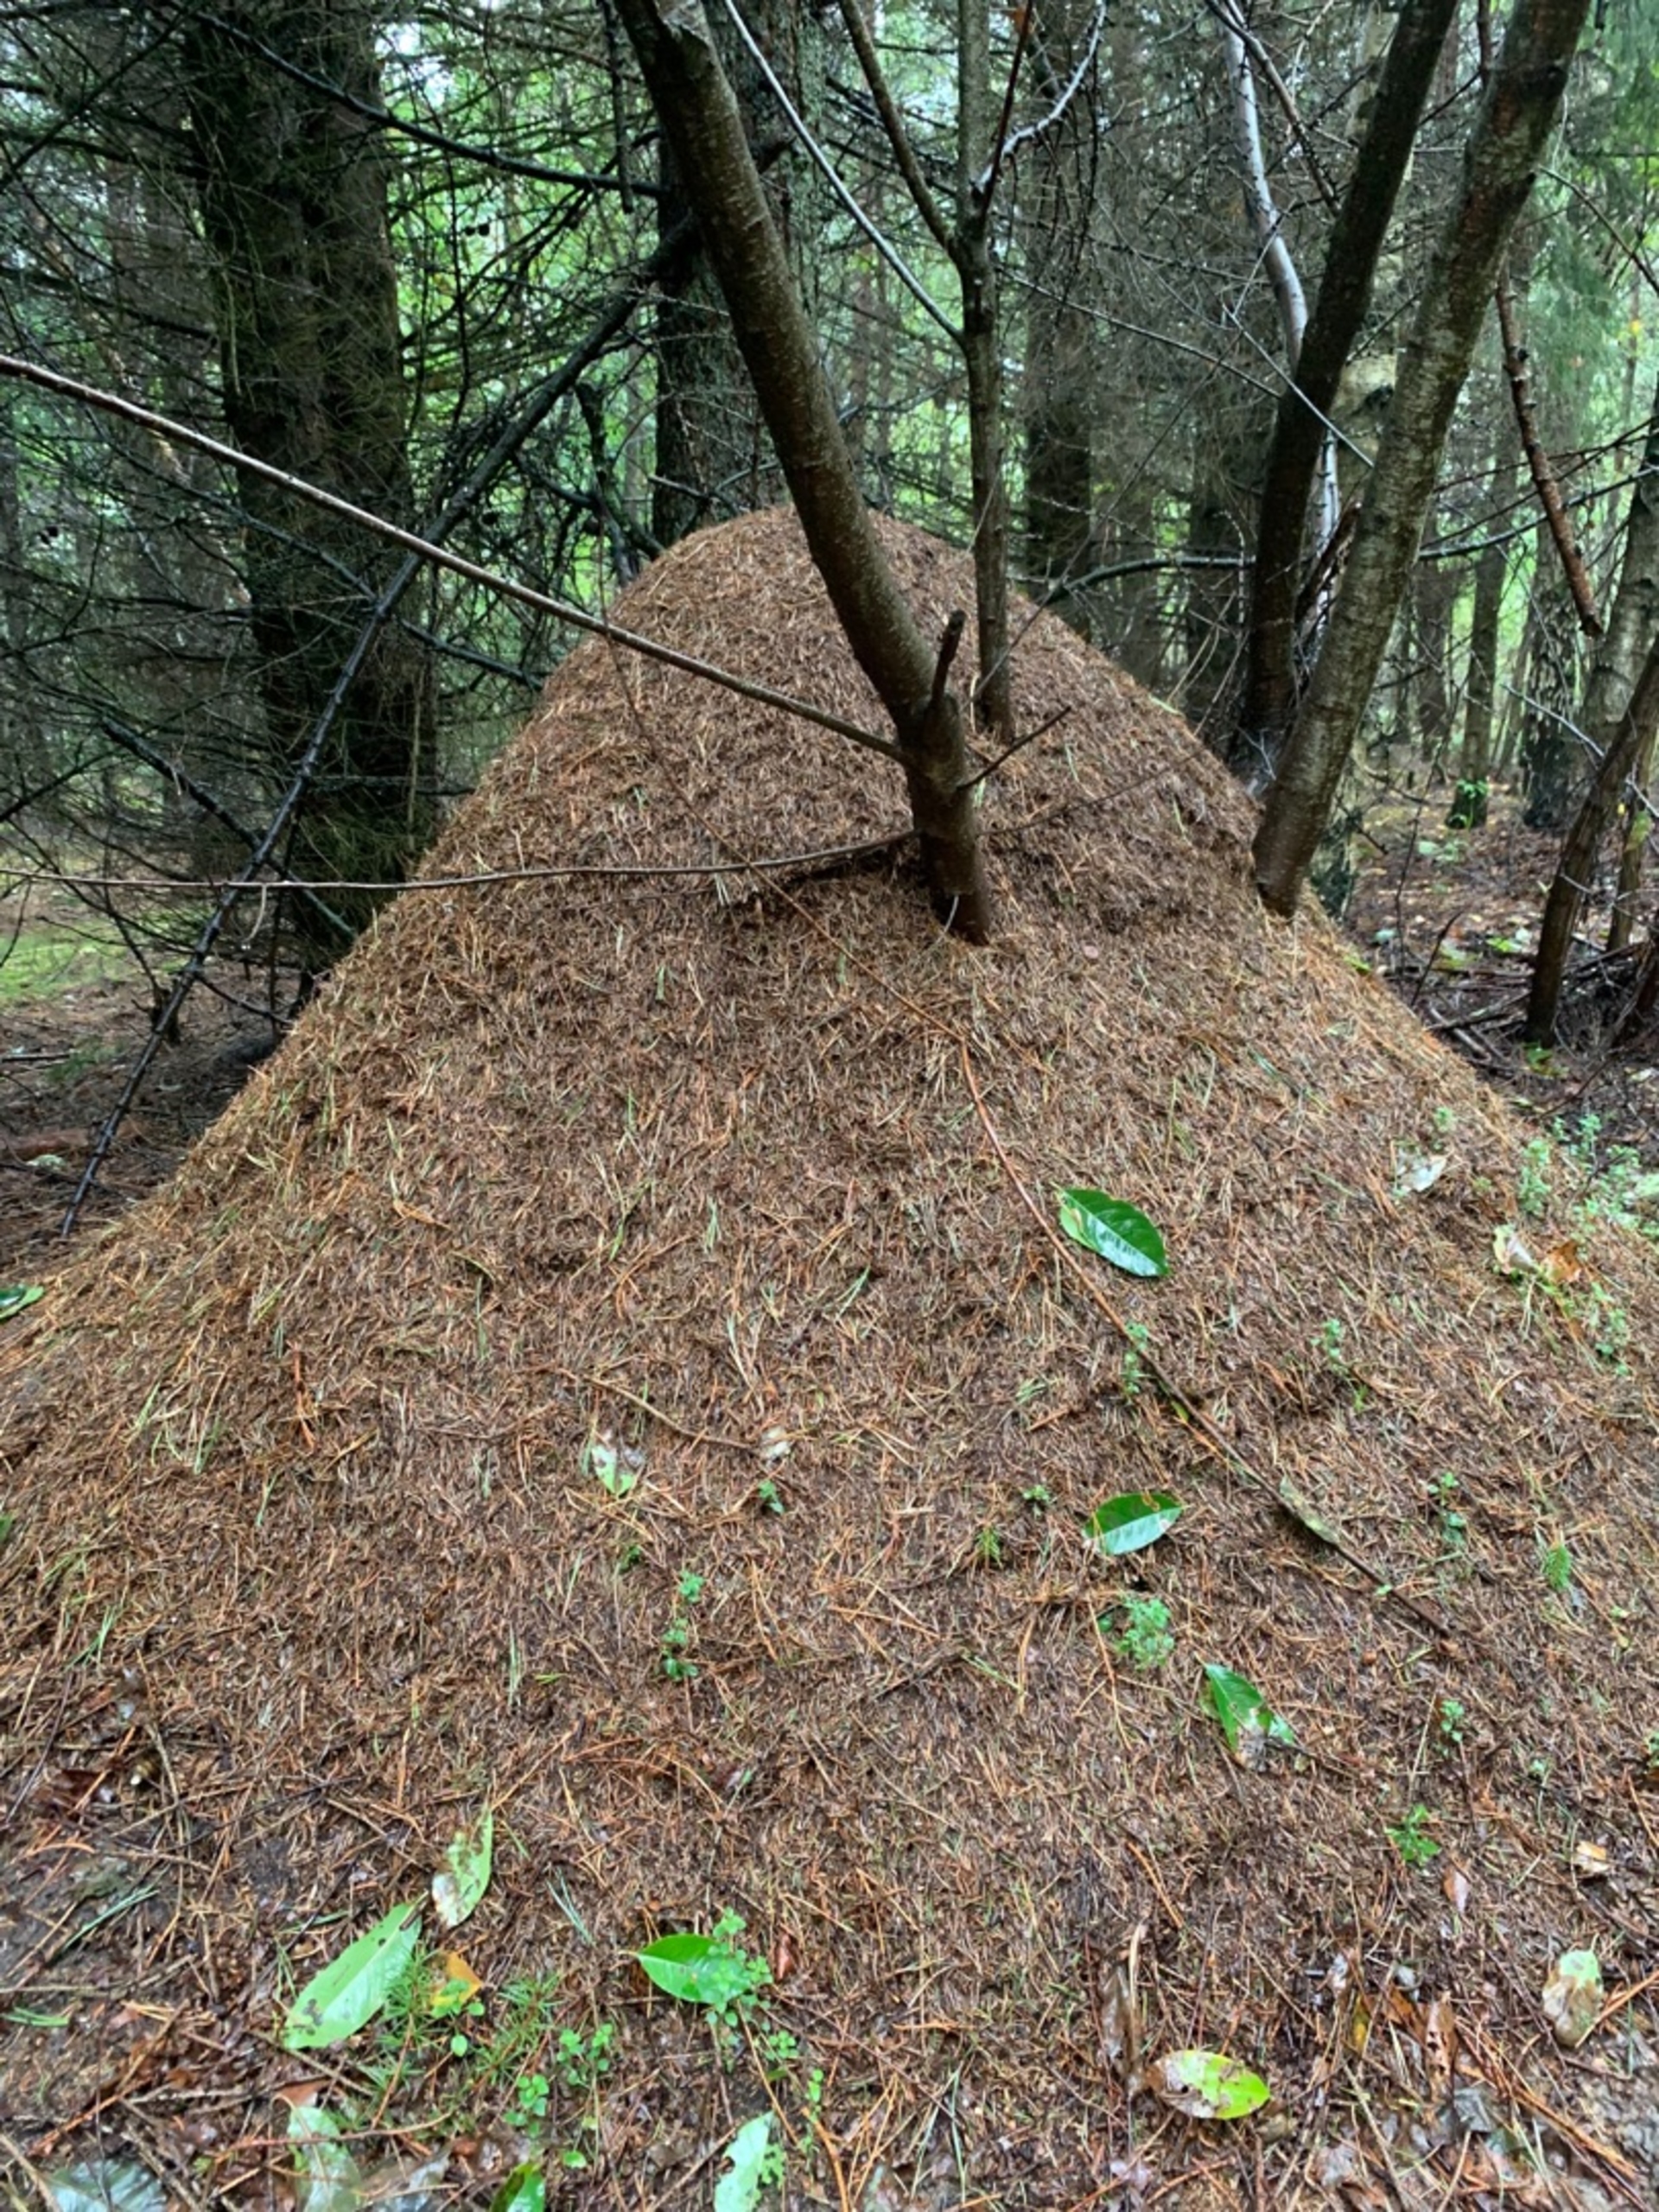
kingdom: Animalia
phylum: Arthropoda
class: Insecta
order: Hymenoptera
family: Formicidae
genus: Formica
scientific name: Formica
